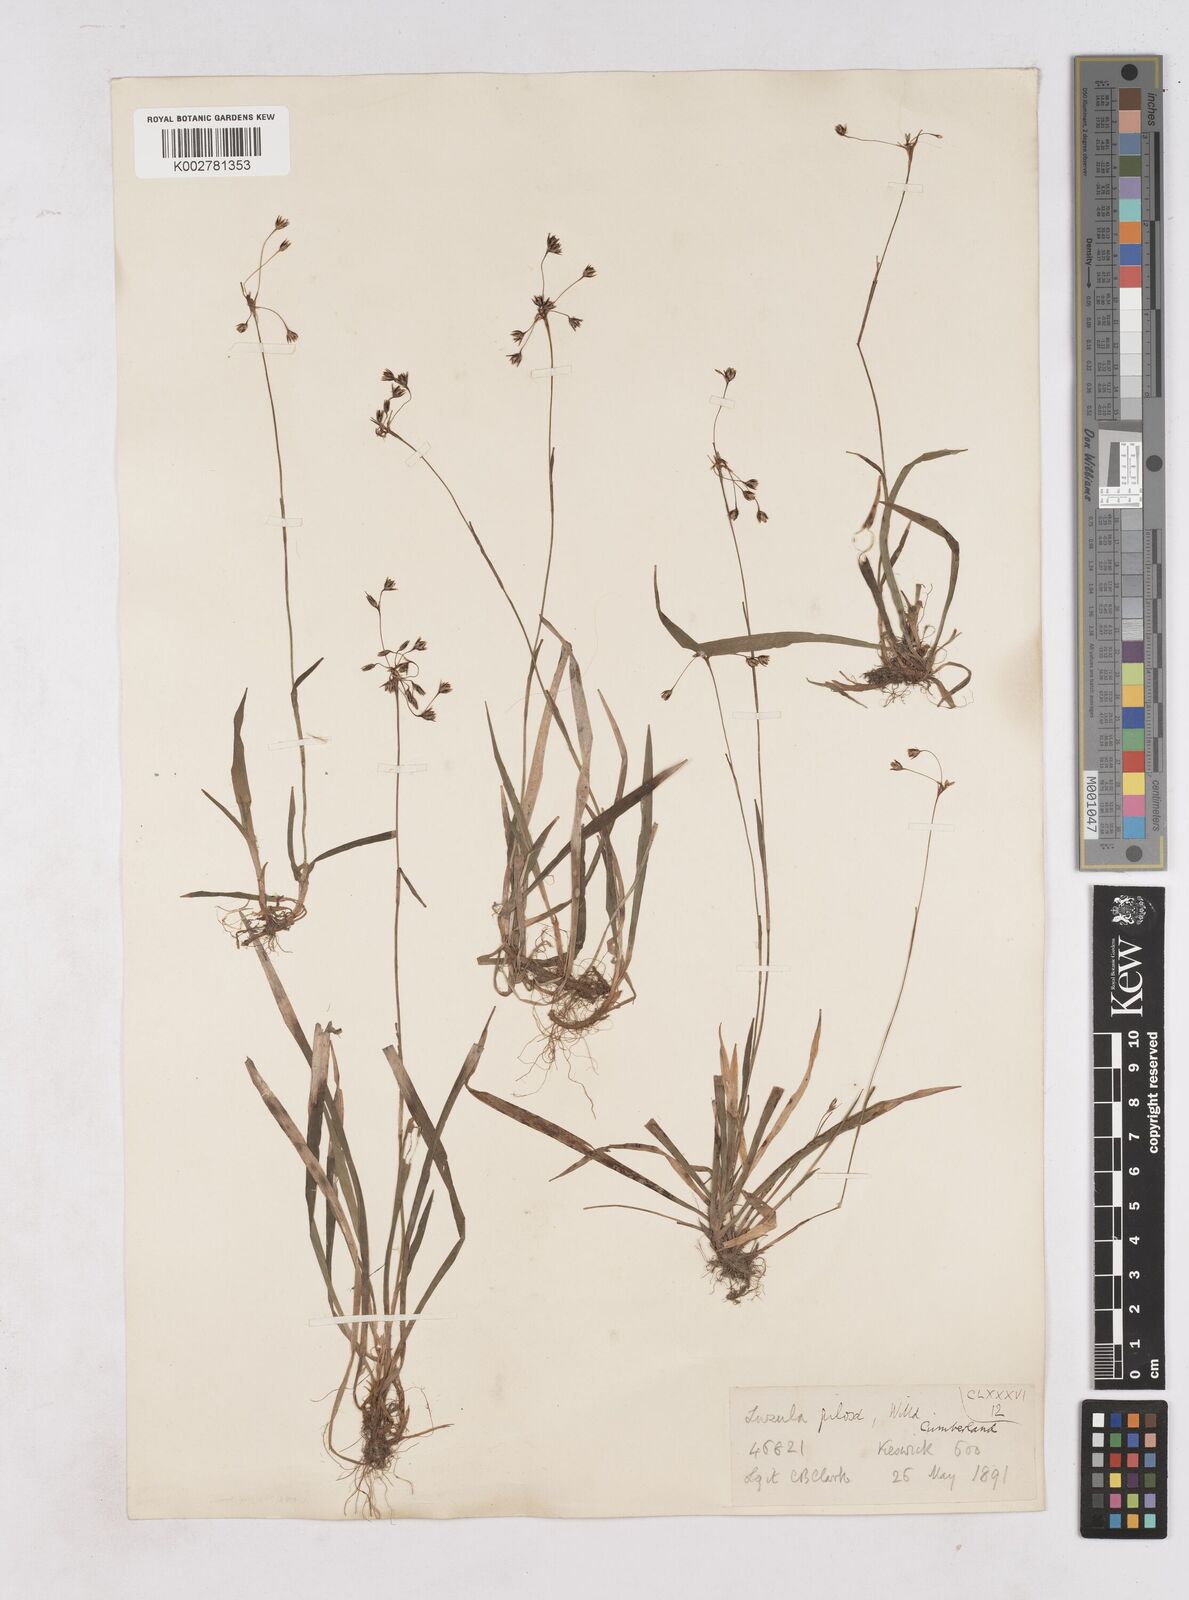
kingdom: Plantae
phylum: Tracheophyta
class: Liliopsida
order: Poales
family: Juncaceae
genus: Luzula
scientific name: Luzula pilosa
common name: Hairy wood-rush
